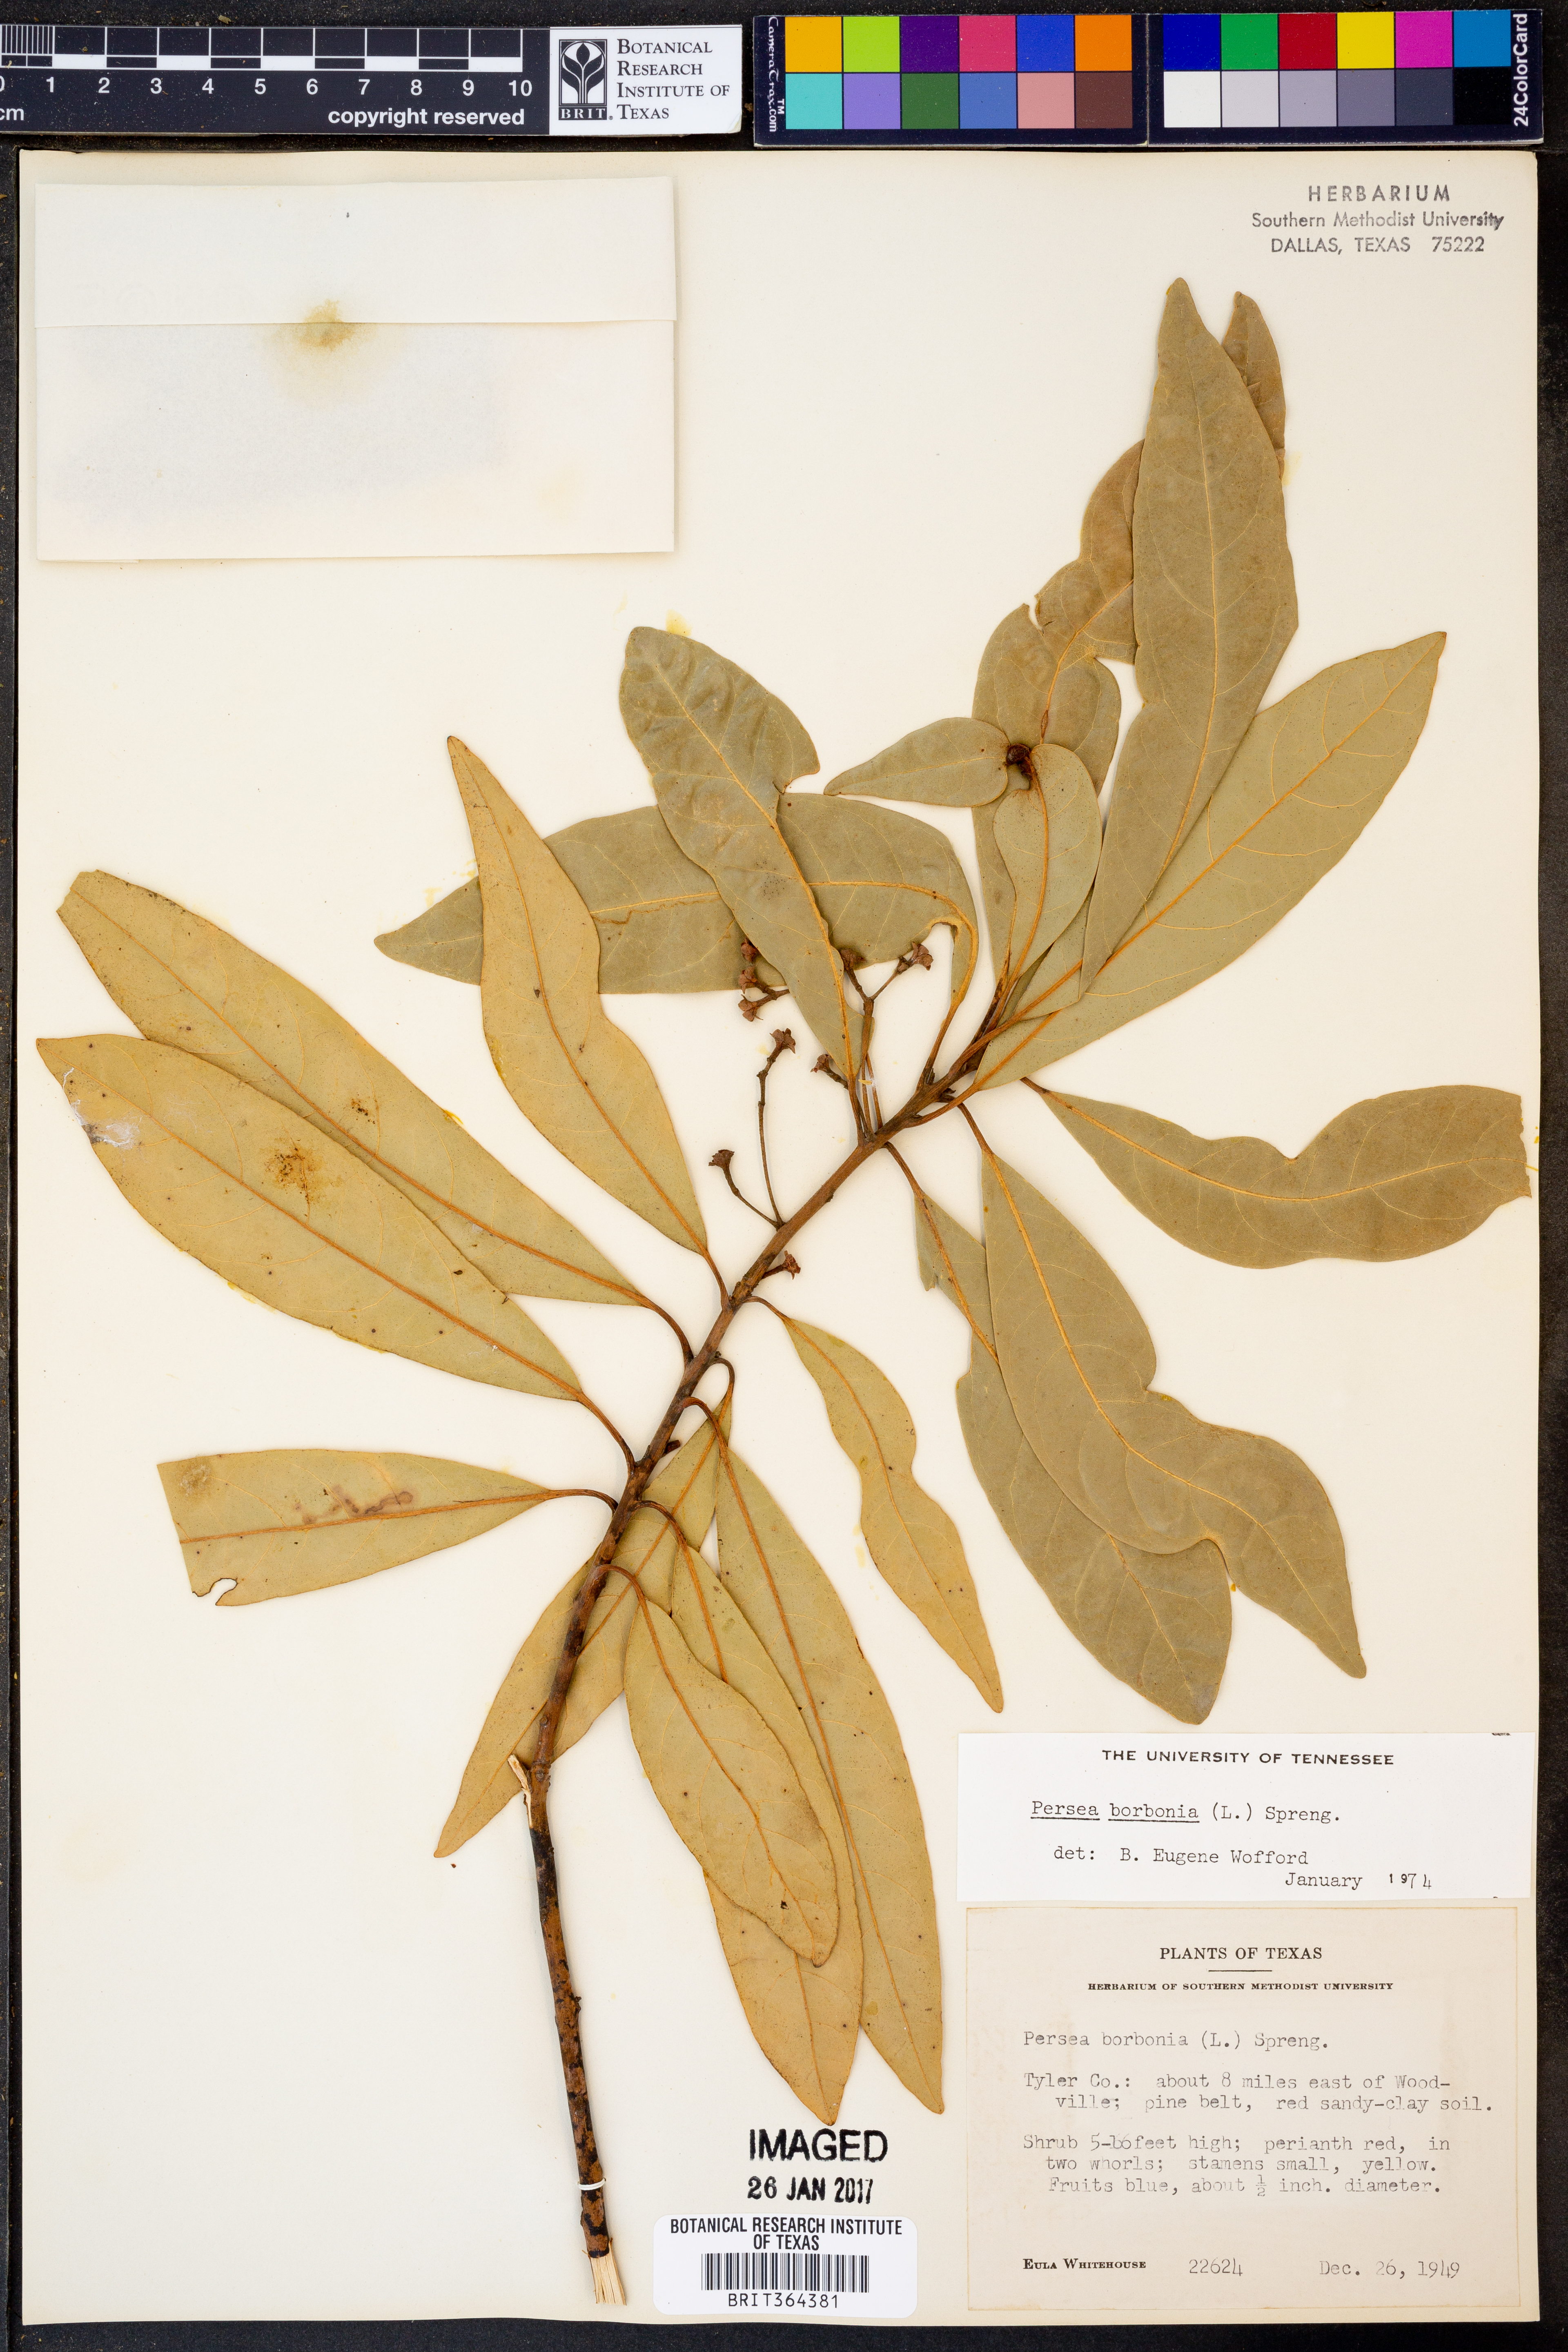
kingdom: Plantae
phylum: Tracheophyta
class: Magnoliopsida
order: Laurales
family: Lauraceae
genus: Persea
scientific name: Persea borbonia
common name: Redbay
